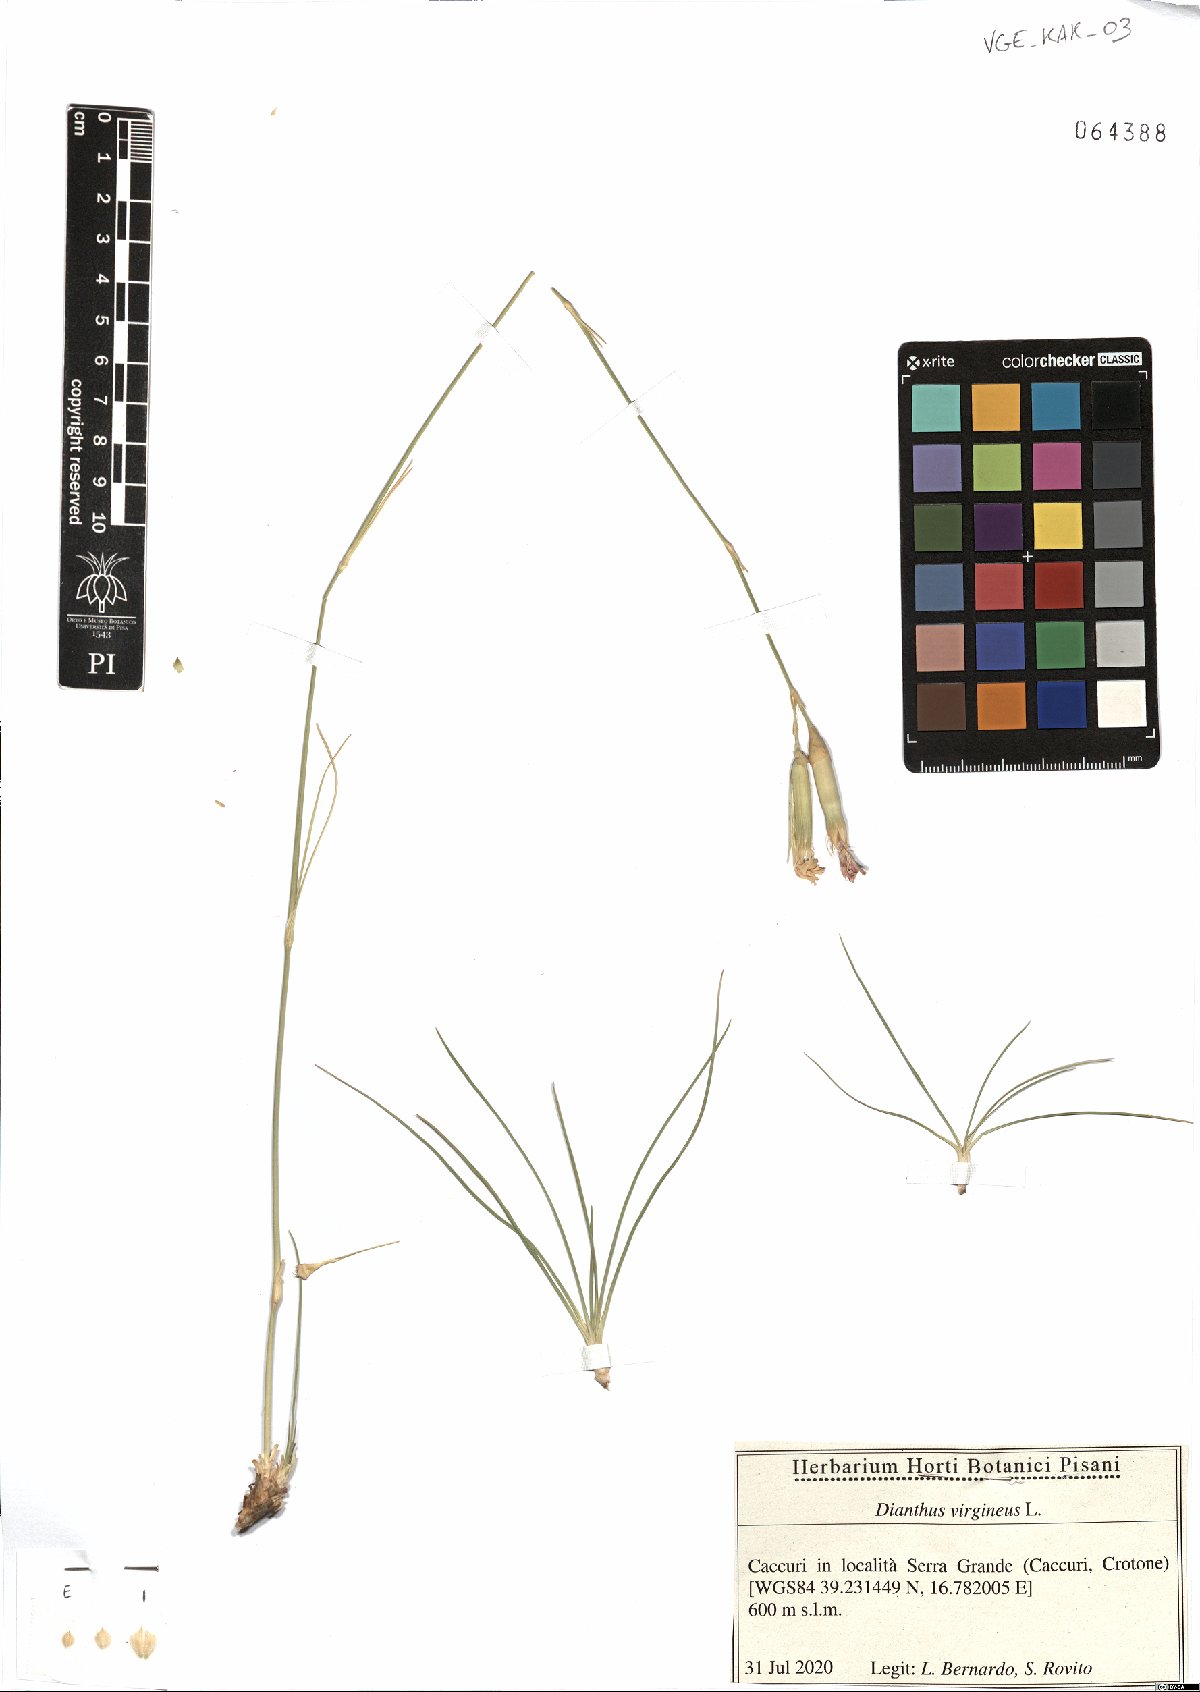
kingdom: Plantae
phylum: Tracheophyta
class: Magnoliopsida
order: Caryophyllales
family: Caryophyllaceae
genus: Dianthus
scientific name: Dianthus virgineus
